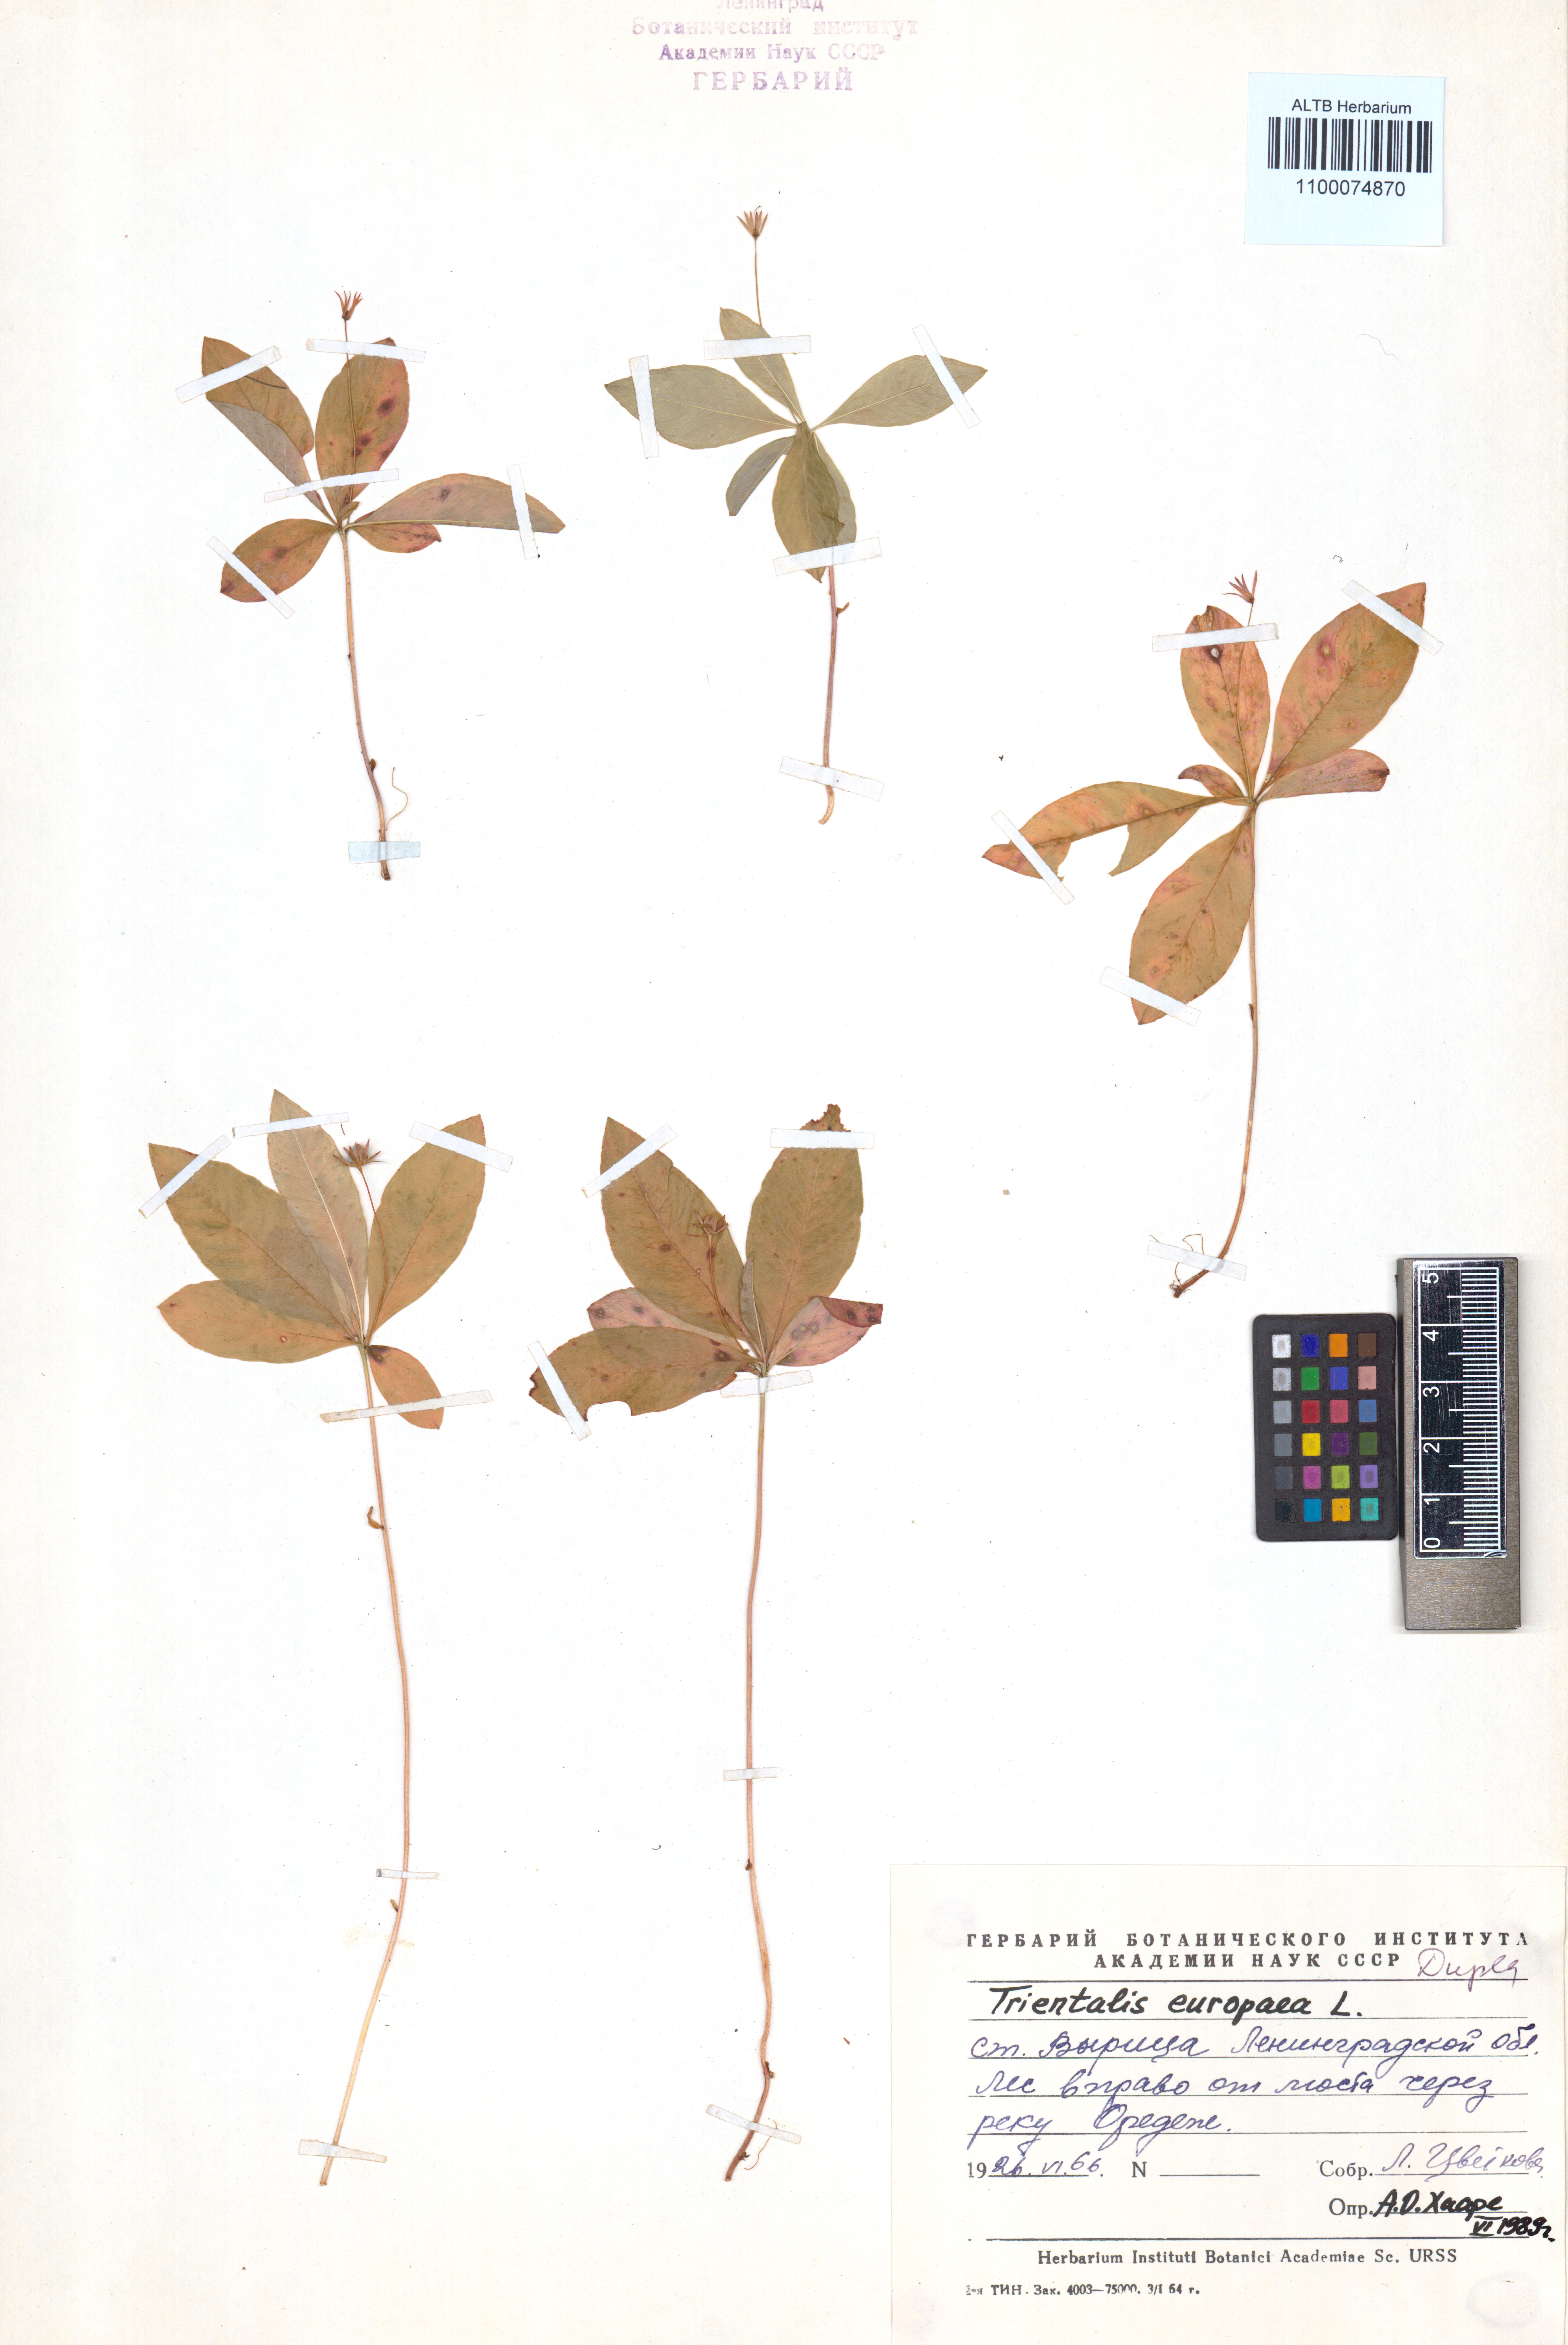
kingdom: Plantae
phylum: Tracheophyta
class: Magnoliopsida
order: Ericales
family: Primulaceae
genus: Lysimachia
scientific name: Lysimachia europaea
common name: Arctic starflower
